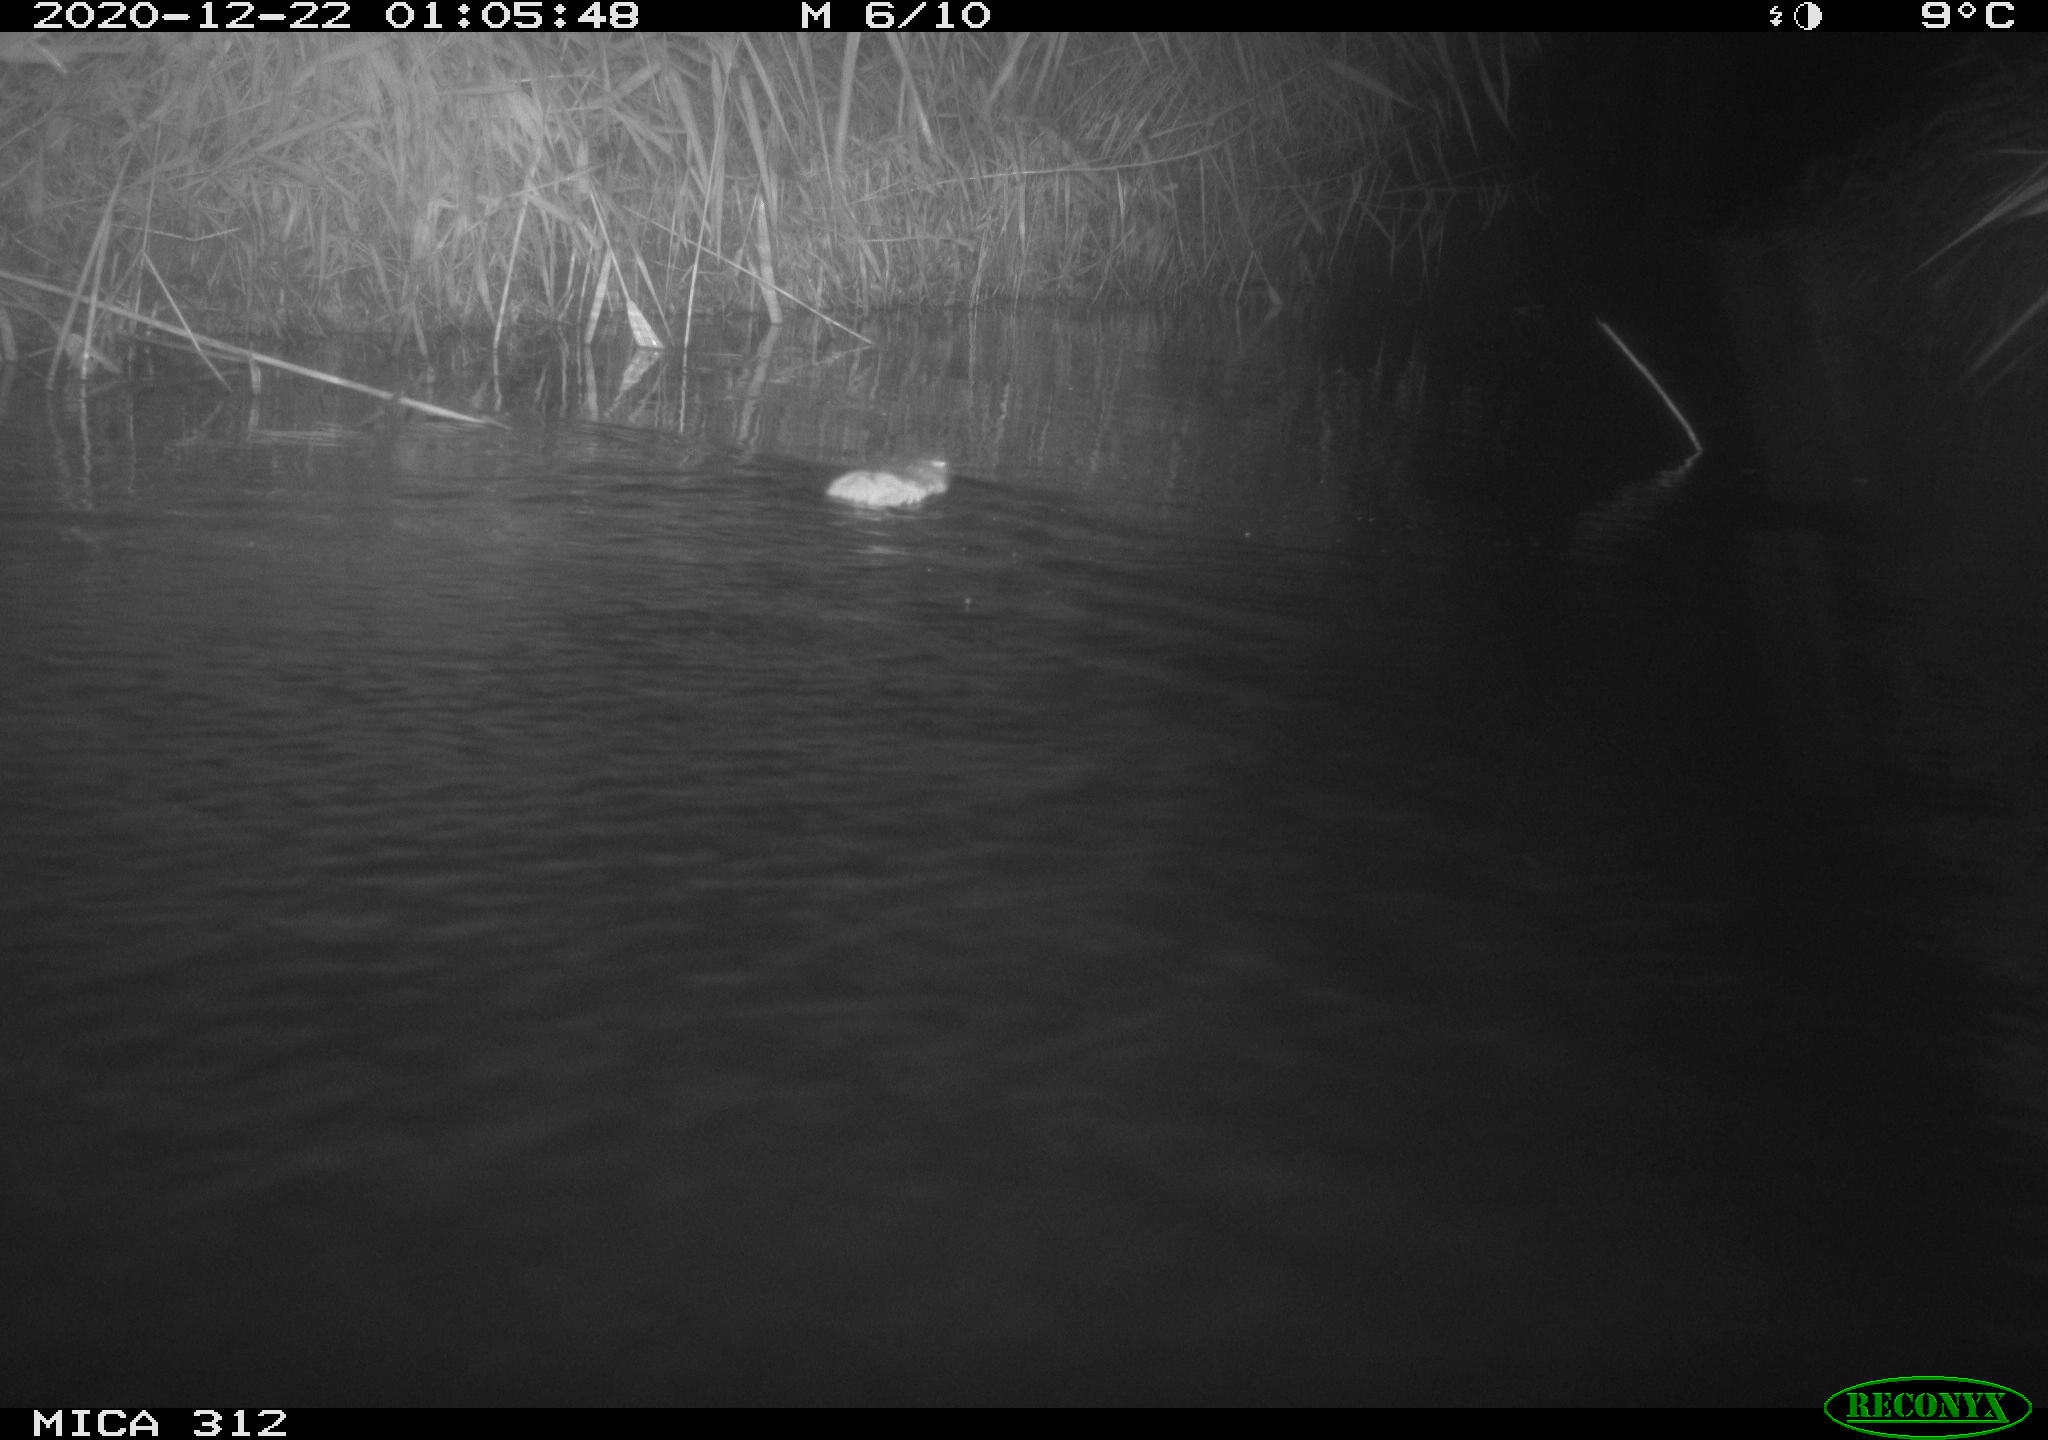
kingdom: Animalia
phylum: Chordata
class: Mammalia
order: Rodentia
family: Muridae
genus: Rattus
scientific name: Rattus norvegicus
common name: Brown rat
